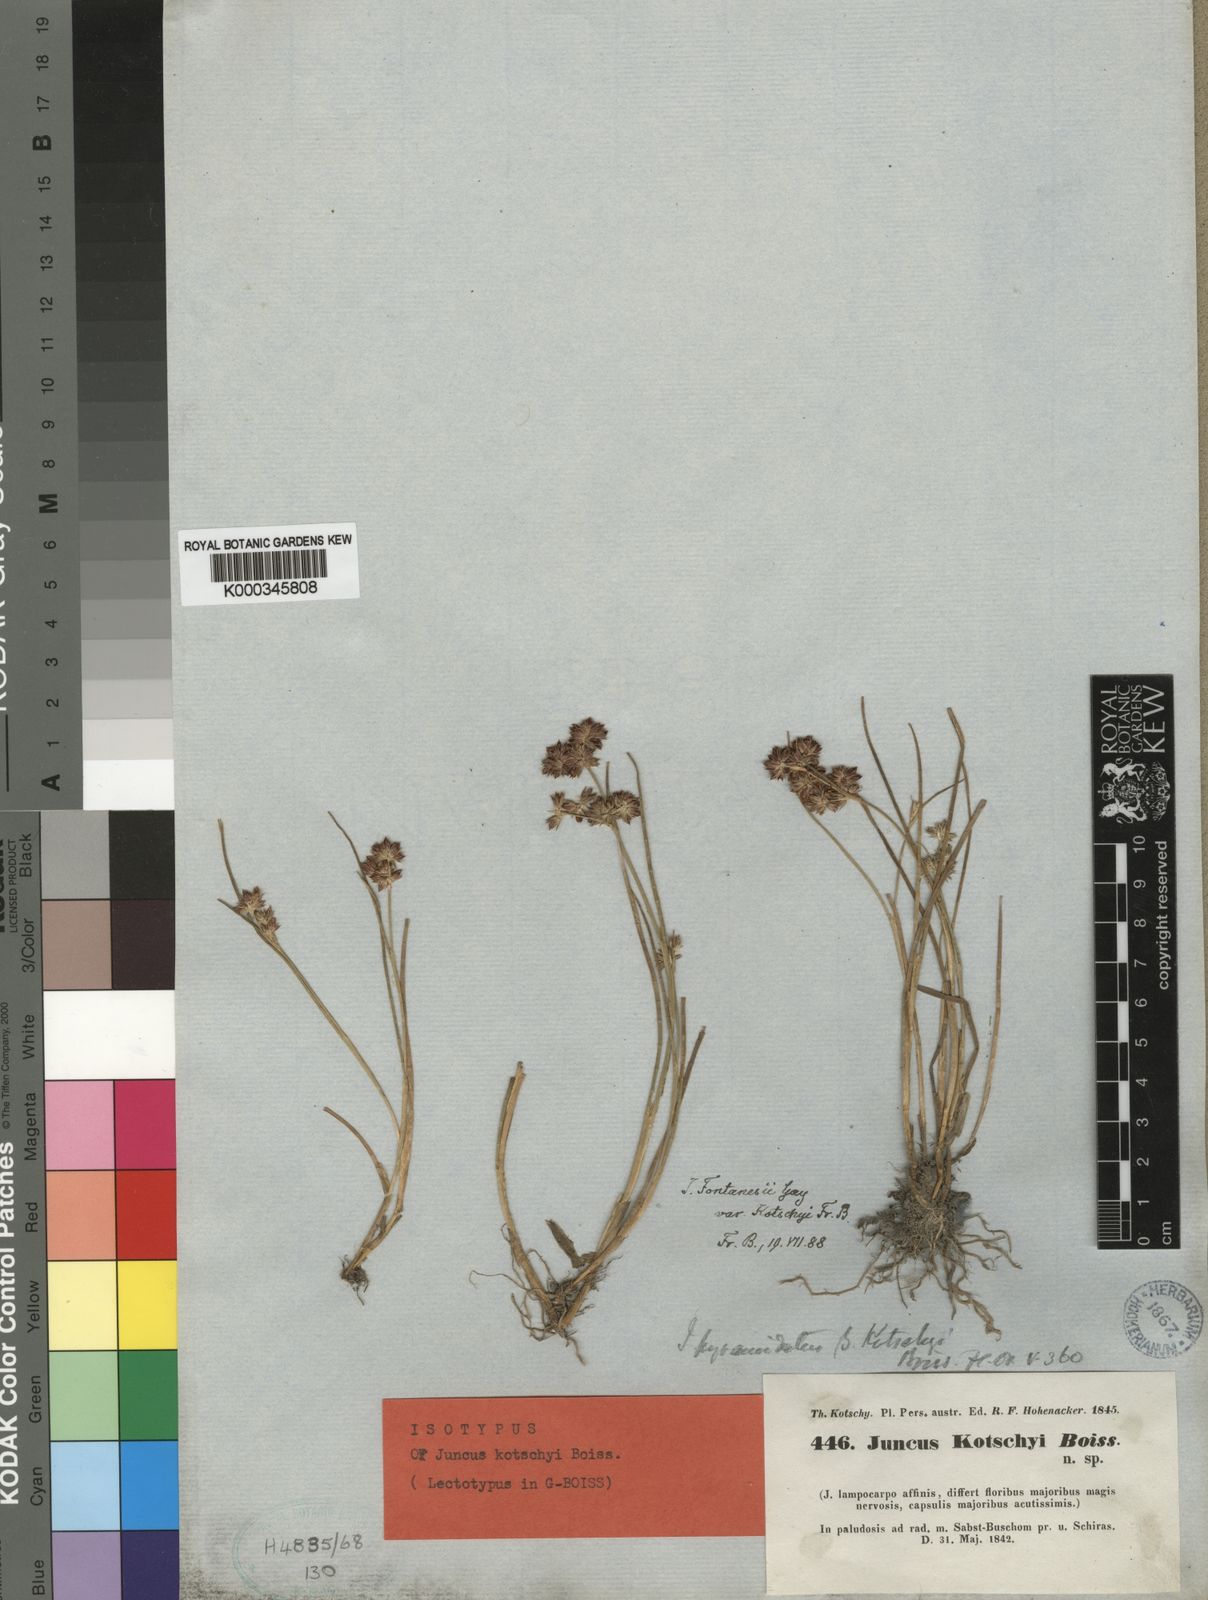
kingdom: Plantae
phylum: Tracheophyta
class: Liliopsida
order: Poales
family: Juncaceae
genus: Juncus
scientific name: Juncus fontanesii
